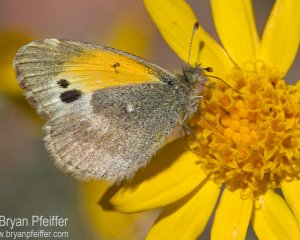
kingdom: Animalia
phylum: Arthropoda
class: Insecta
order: Lepidoptera
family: Pieridae
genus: Nathalis
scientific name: Nathalis iole
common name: Dainty Sulphur
